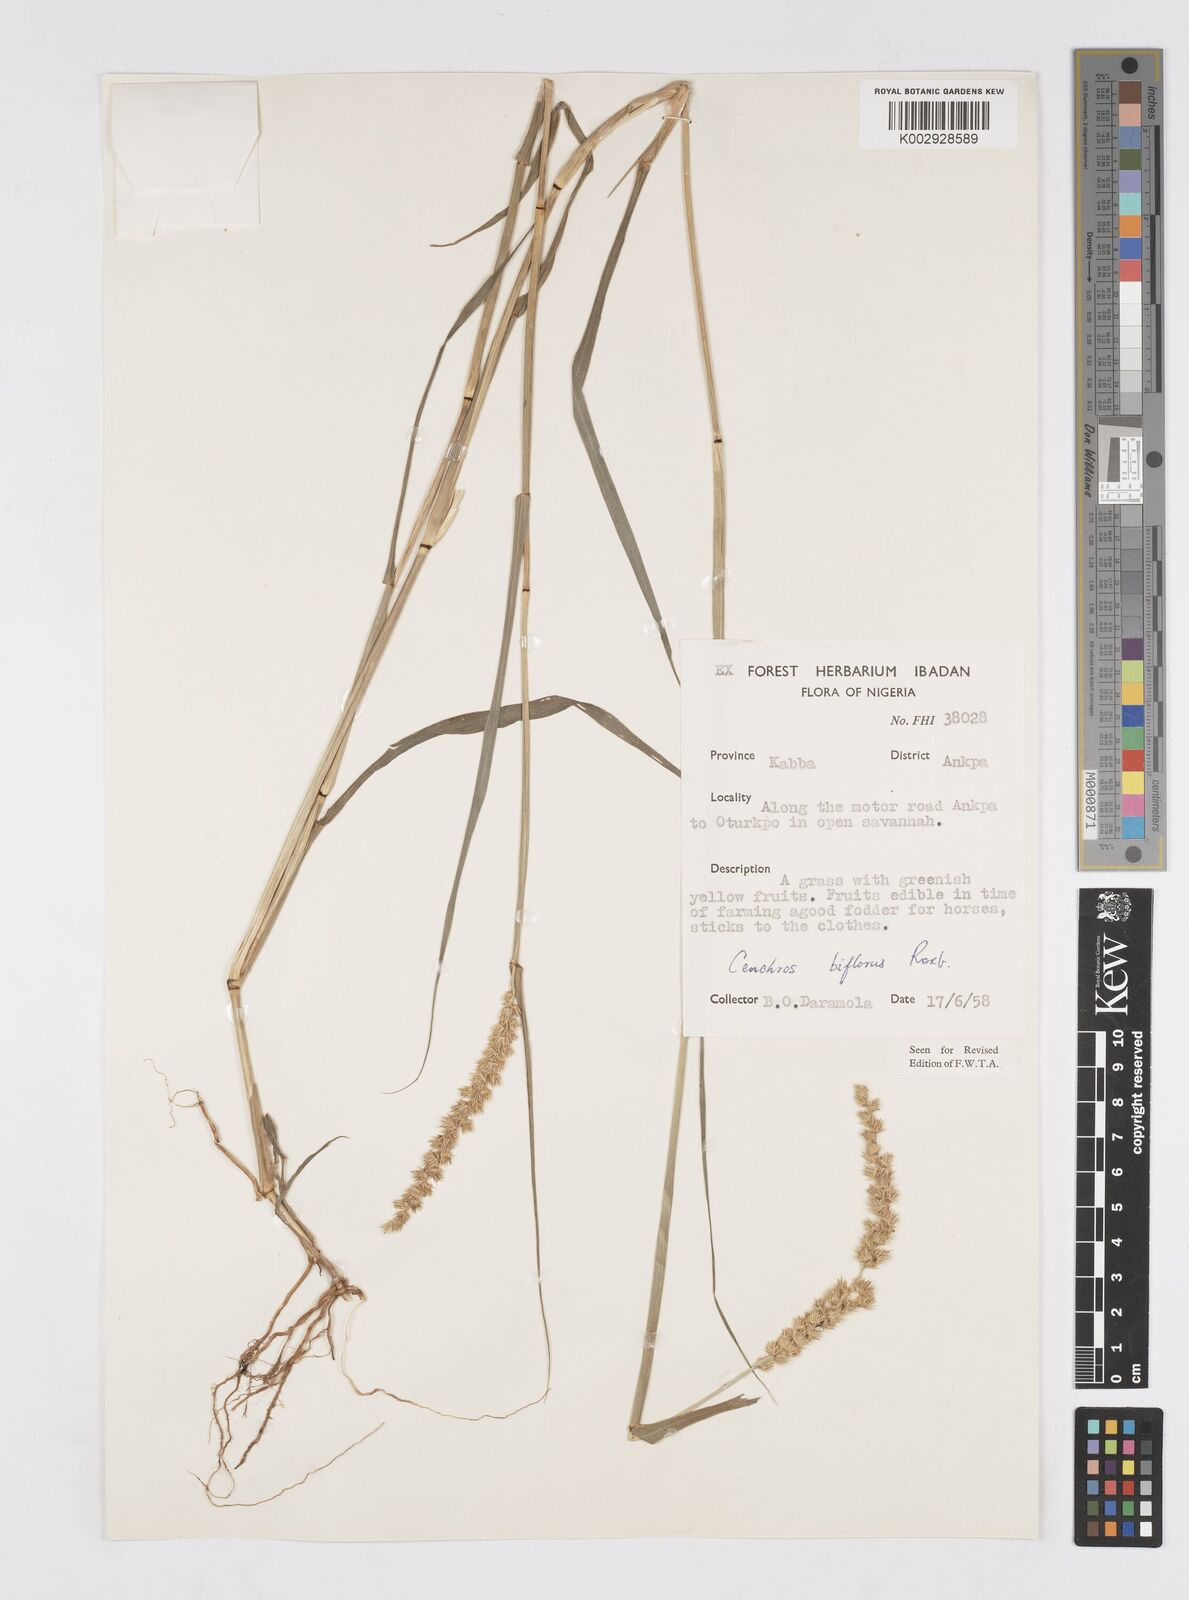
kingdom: Plantae
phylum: Tracheophyta
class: Liliopsida
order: Poales
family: Poaceae
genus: Cenchrus
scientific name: Cenchrus biflorus
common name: Indian sandbur
